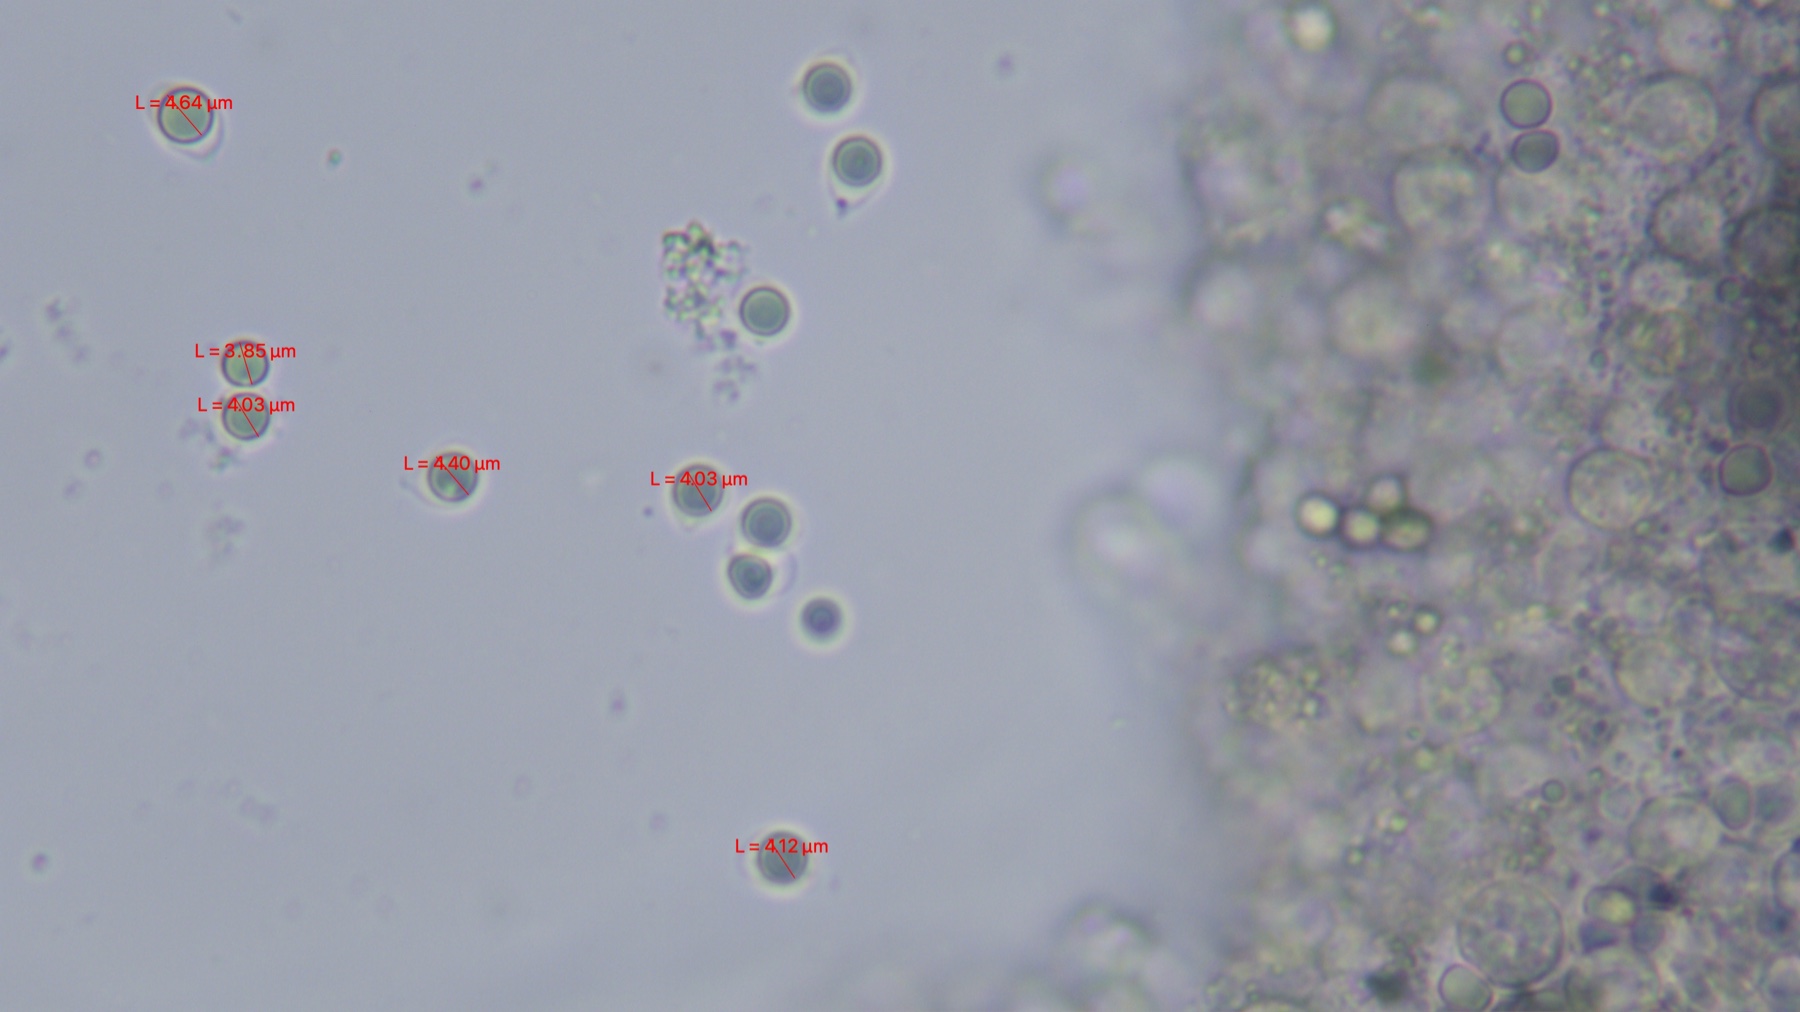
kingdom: Fungi
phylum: Basidiomycota
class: Agaricomycetes
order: Agaricales
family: Tricholomataceae
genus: Megacollybia
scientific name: Megacollybia platyphylla
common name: bredbladet væbnerhat
